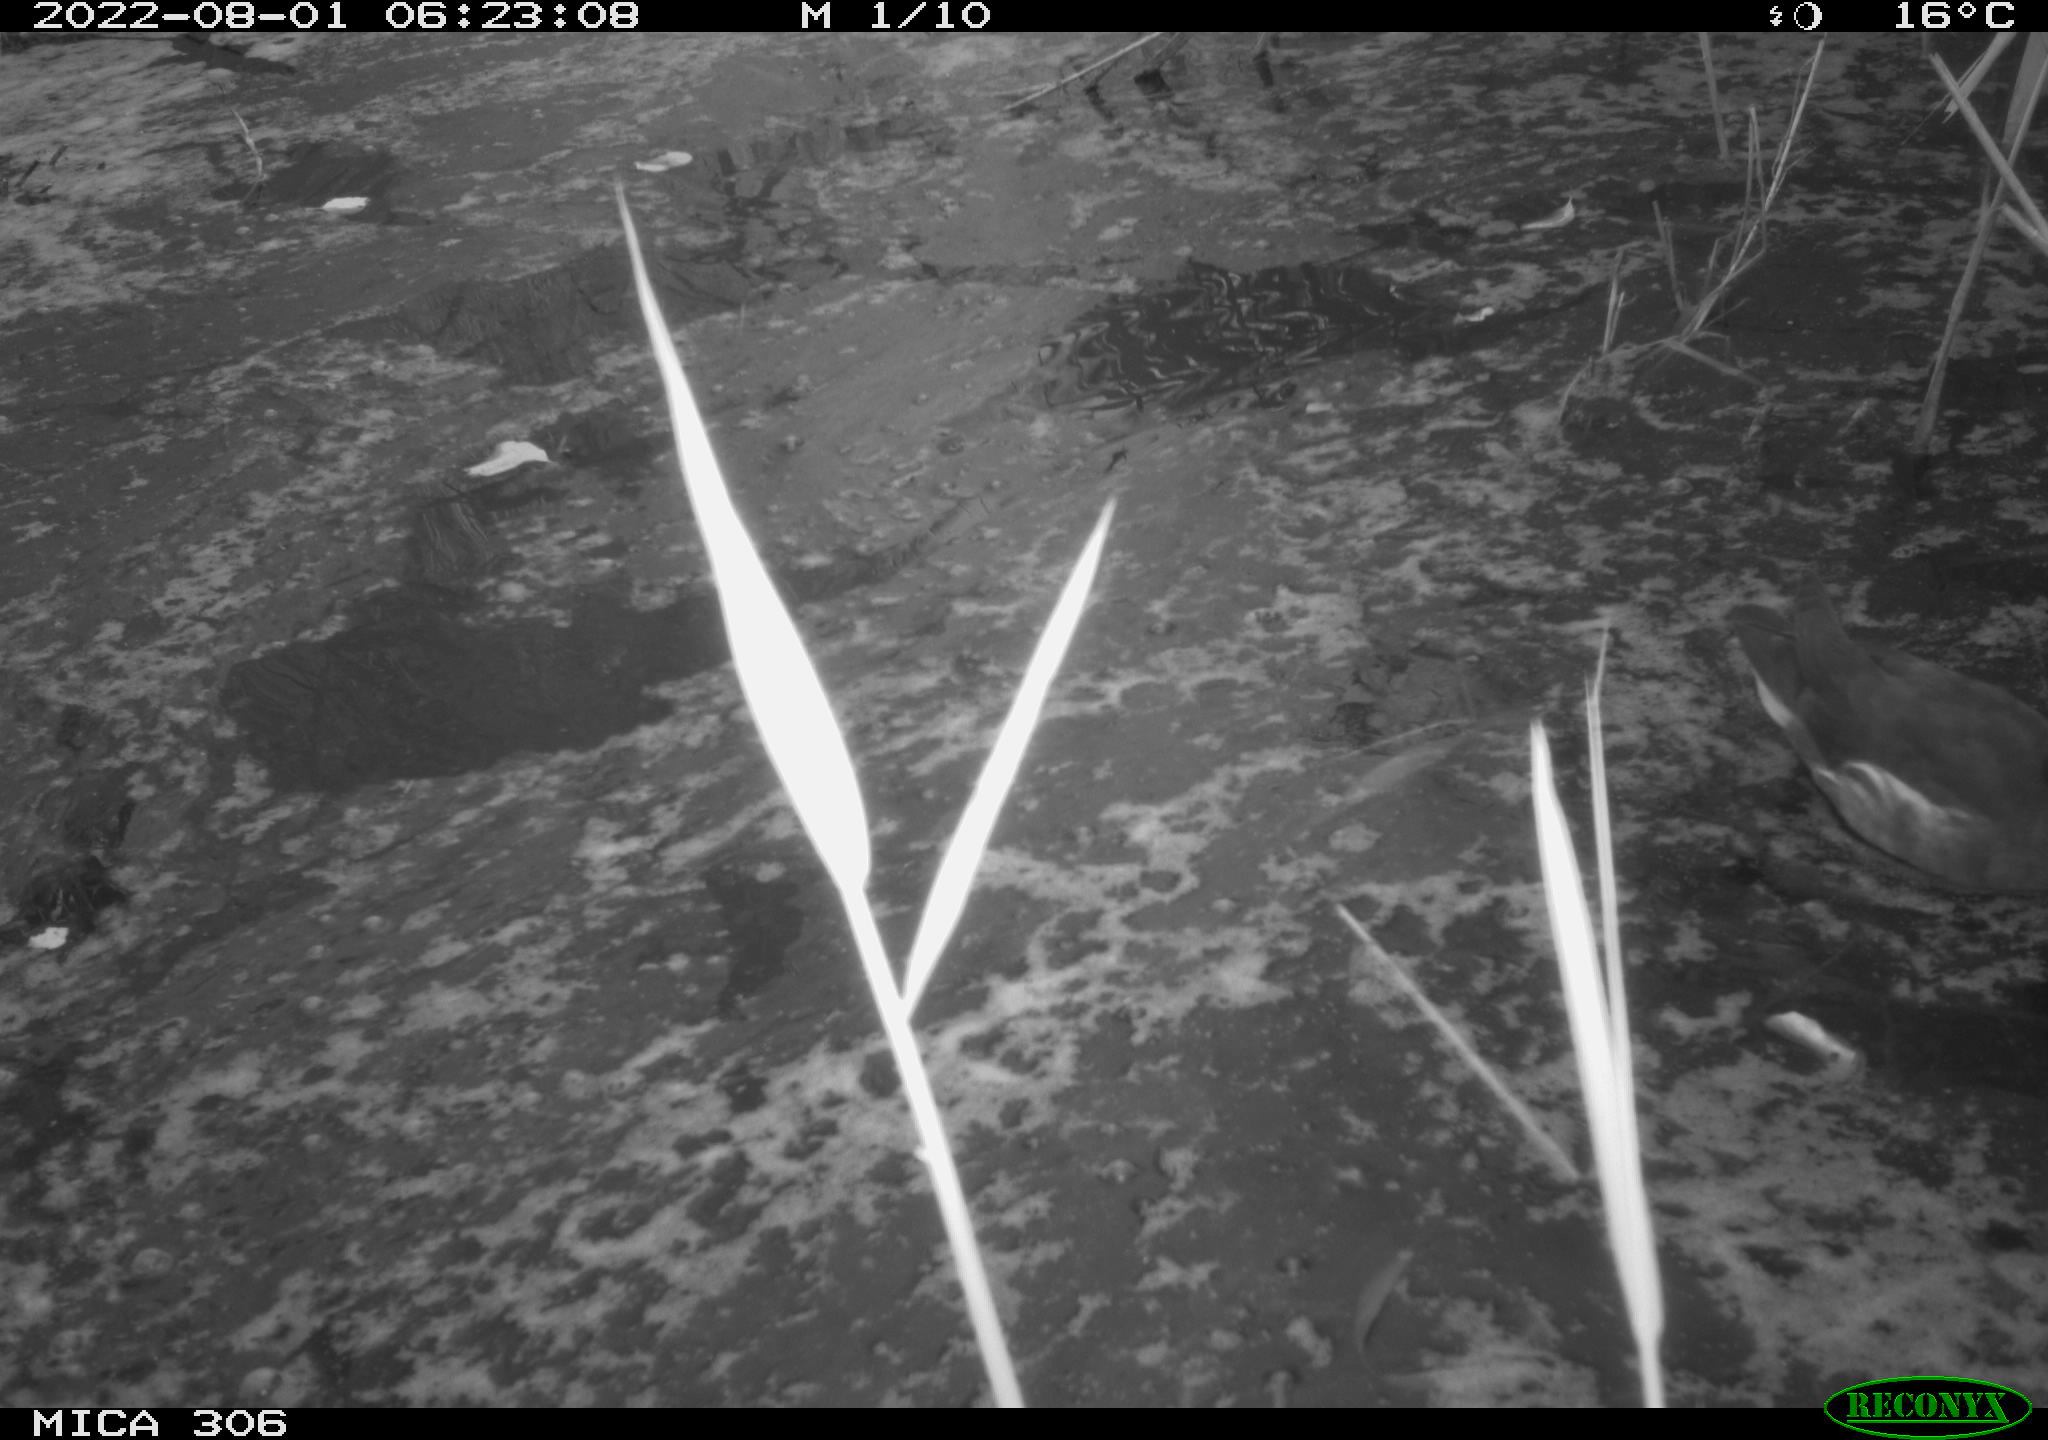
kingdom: Animalia
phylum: Chordata
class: Aves
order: Gruiformes
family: Rallidae
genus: Gallinula
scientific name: Gallinula chloropus
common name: Common moorhen
